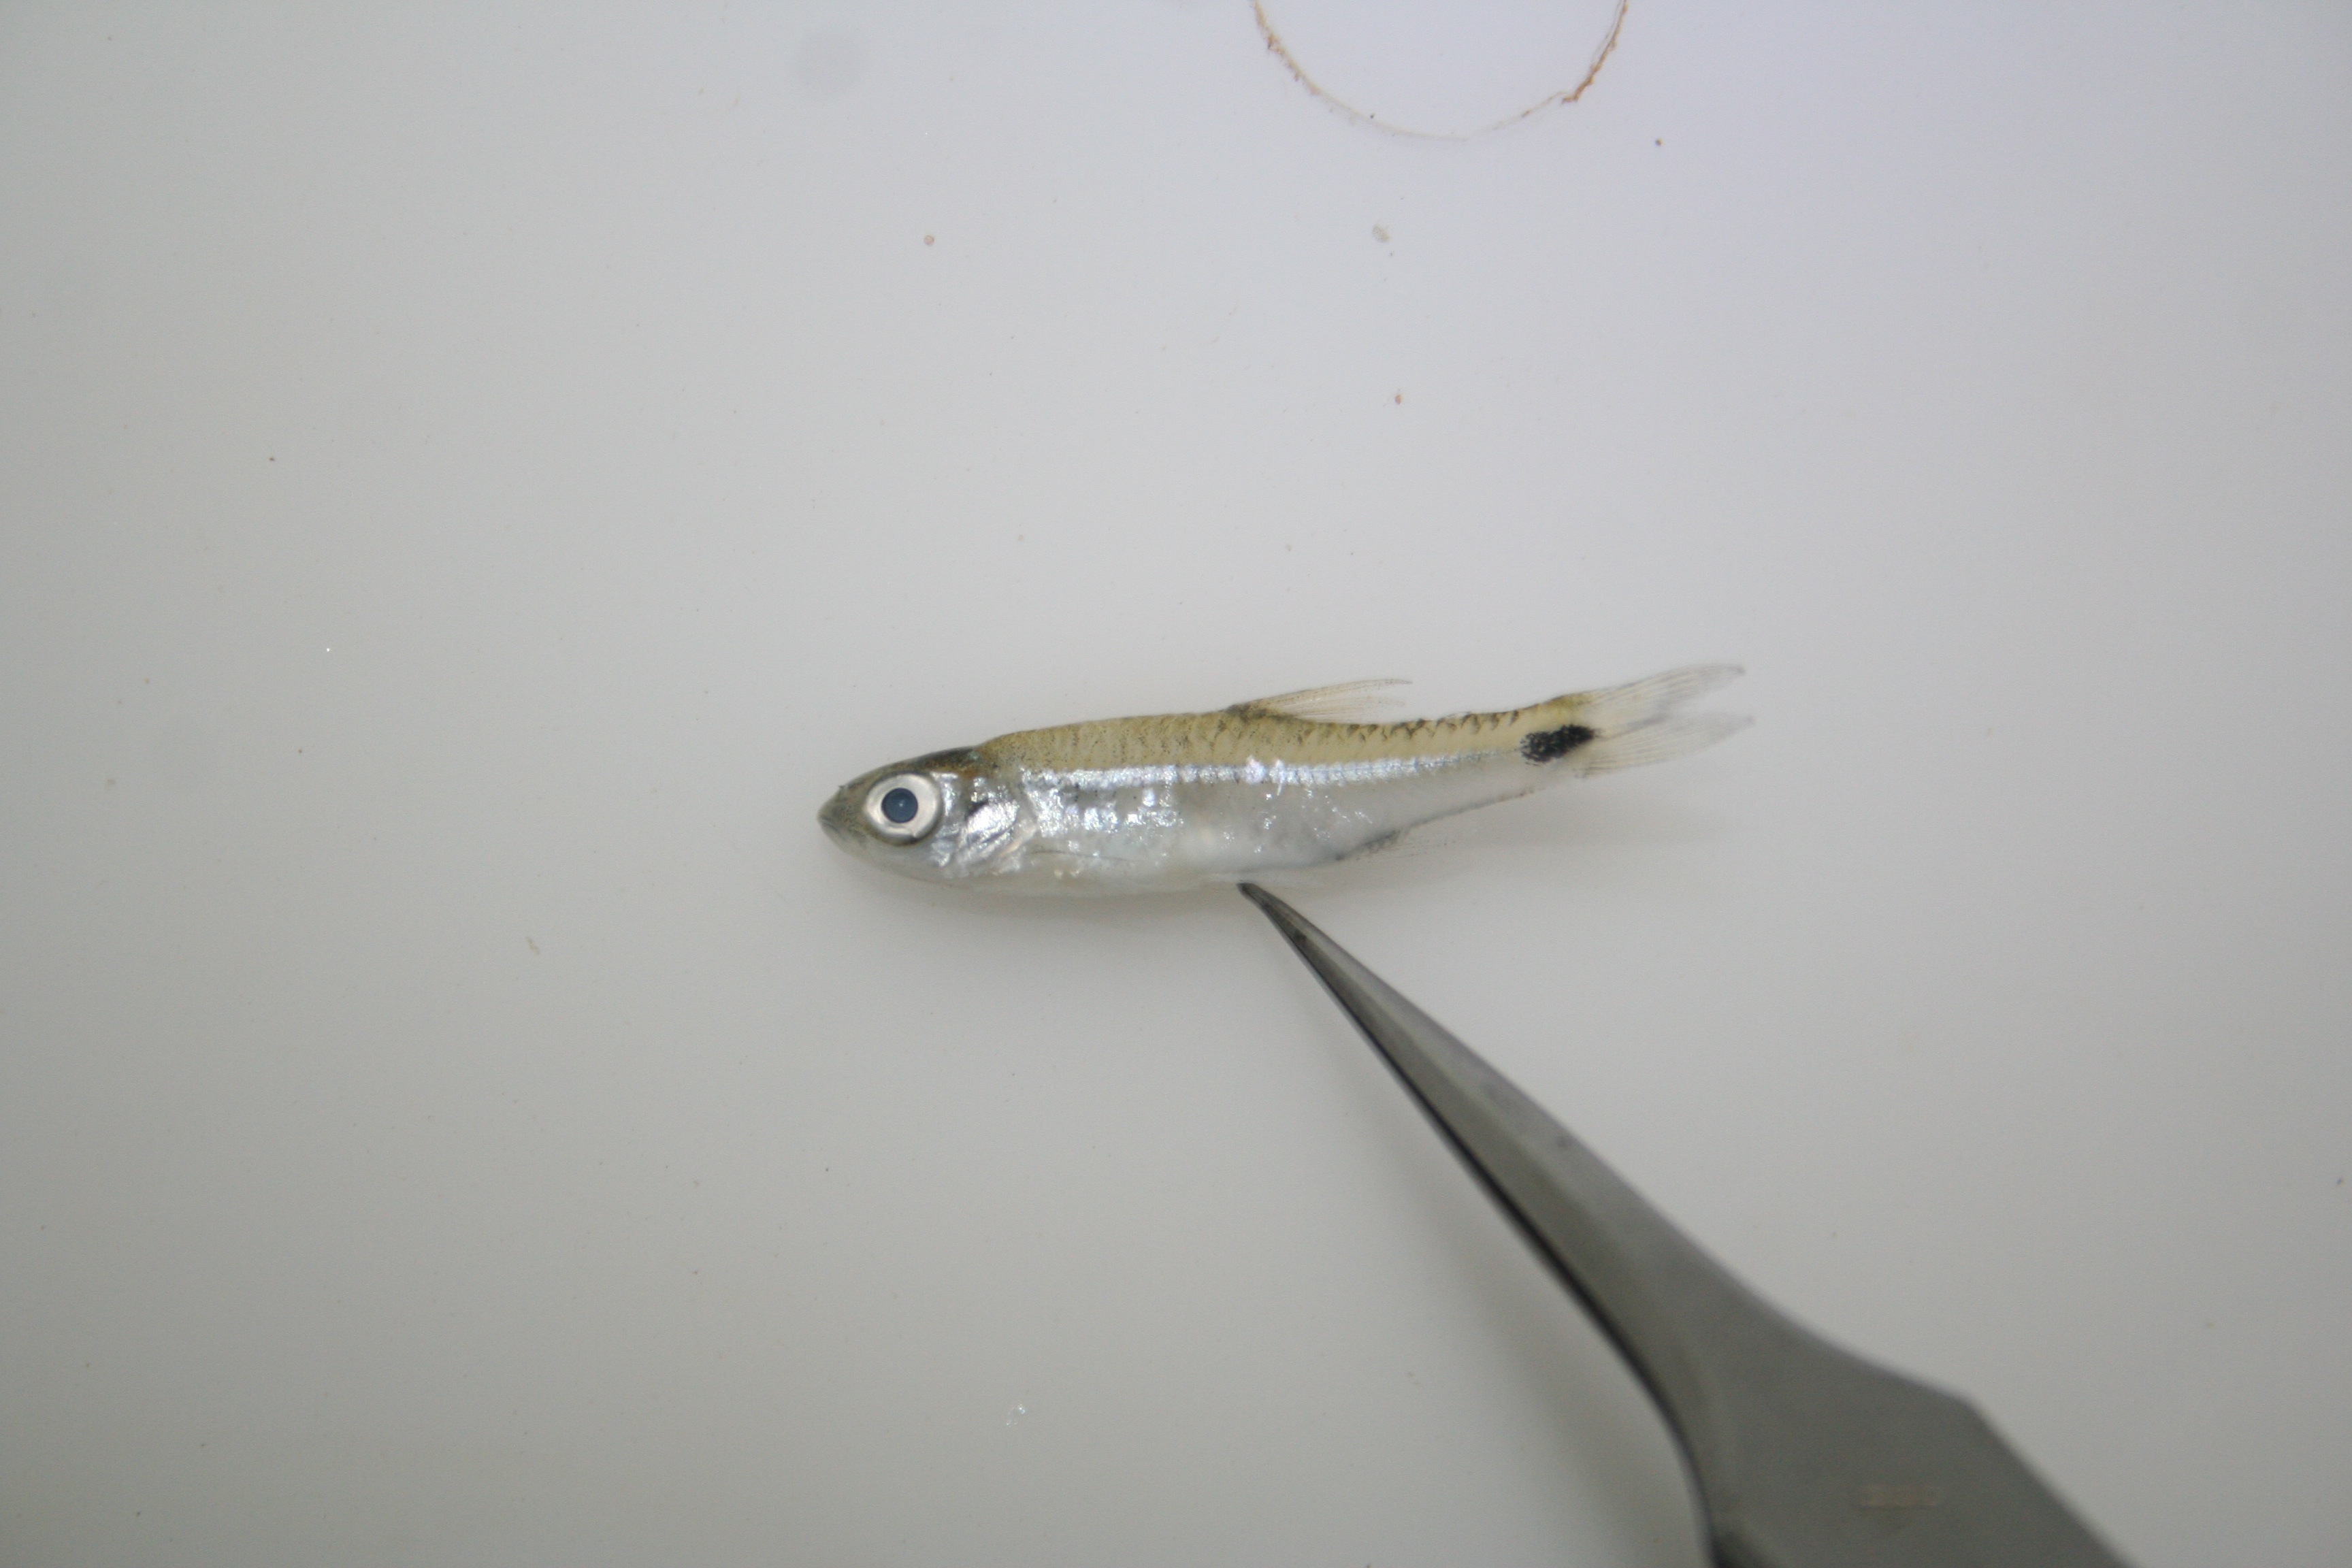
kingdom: Animalia
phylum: Chordata
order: Cypriniformes
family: Cyprinidae
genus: Barbus
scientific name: Barbus
